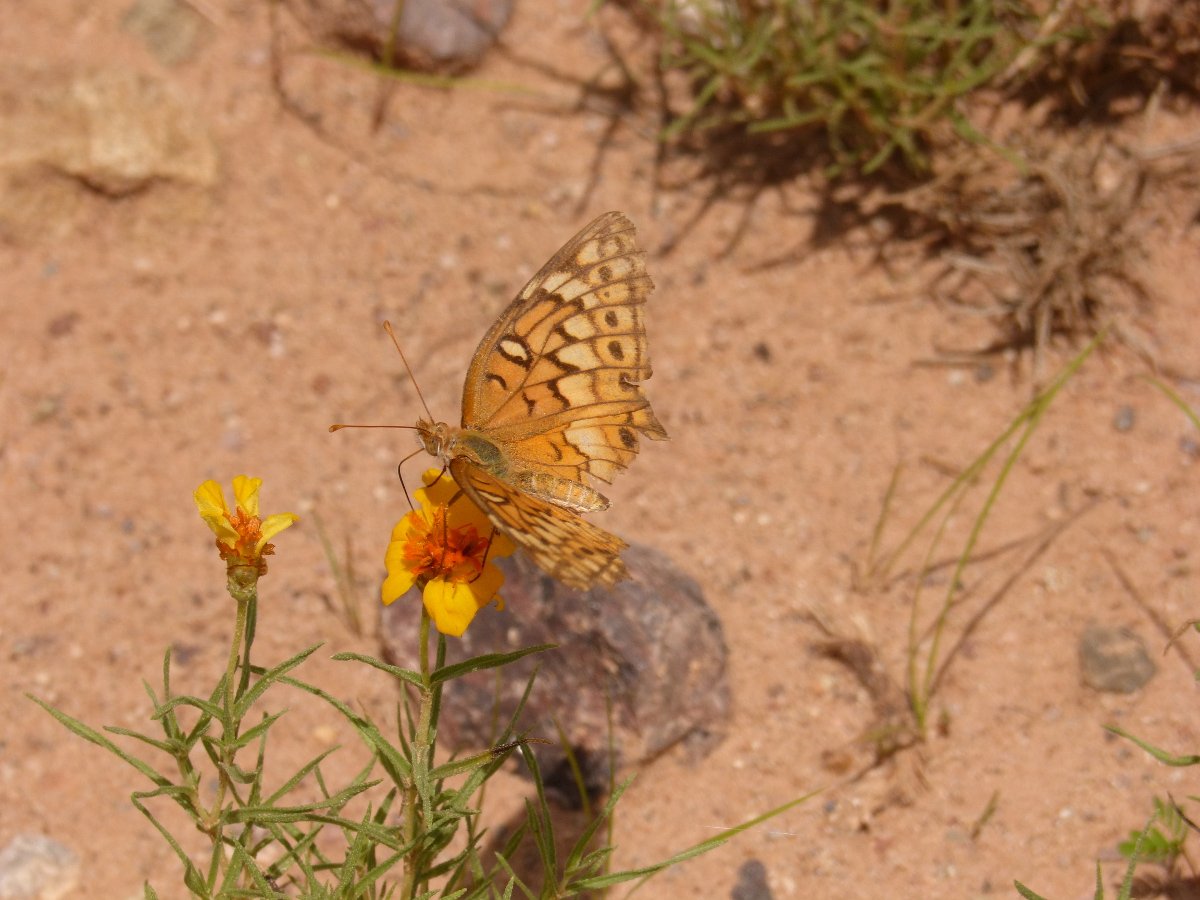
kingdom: Animalia
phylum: Arthropoda
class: Insecta
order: Lepidoptera
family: Nymphalidae
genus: Euptoieta
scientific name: Euptoieta claudia
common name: Variegated Fritillary
